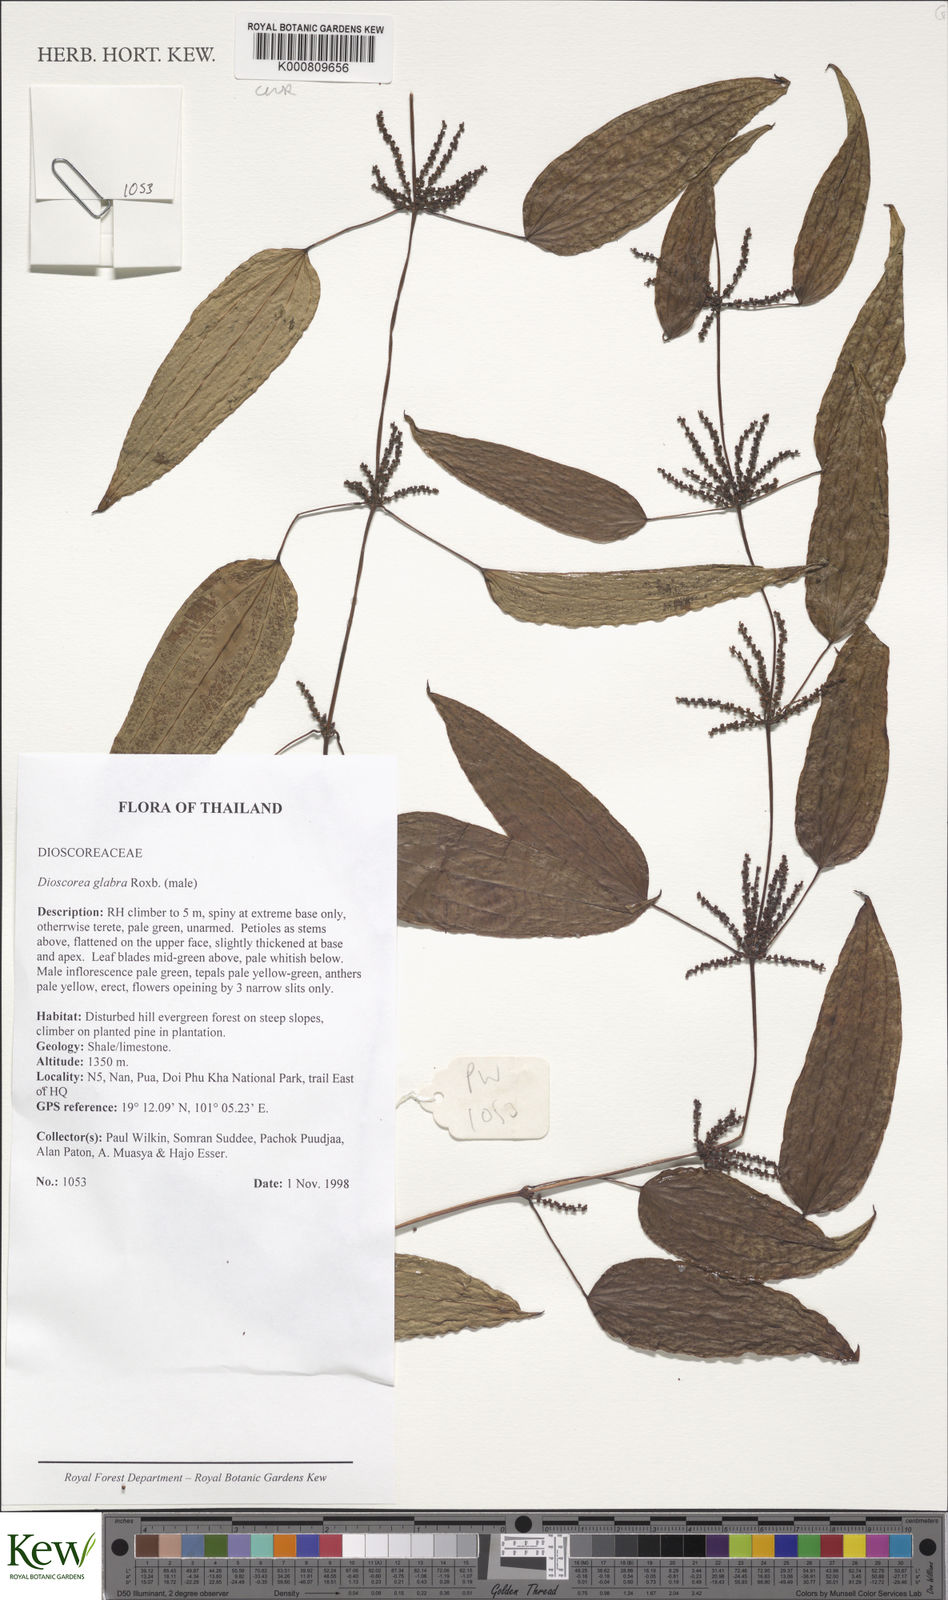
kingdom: Plantae
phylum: Tracheophyta
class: Liliopsida
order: Dioscoreales
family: Dioscoreaceae
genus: Dioscorea
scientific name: Dioscorea glabra
